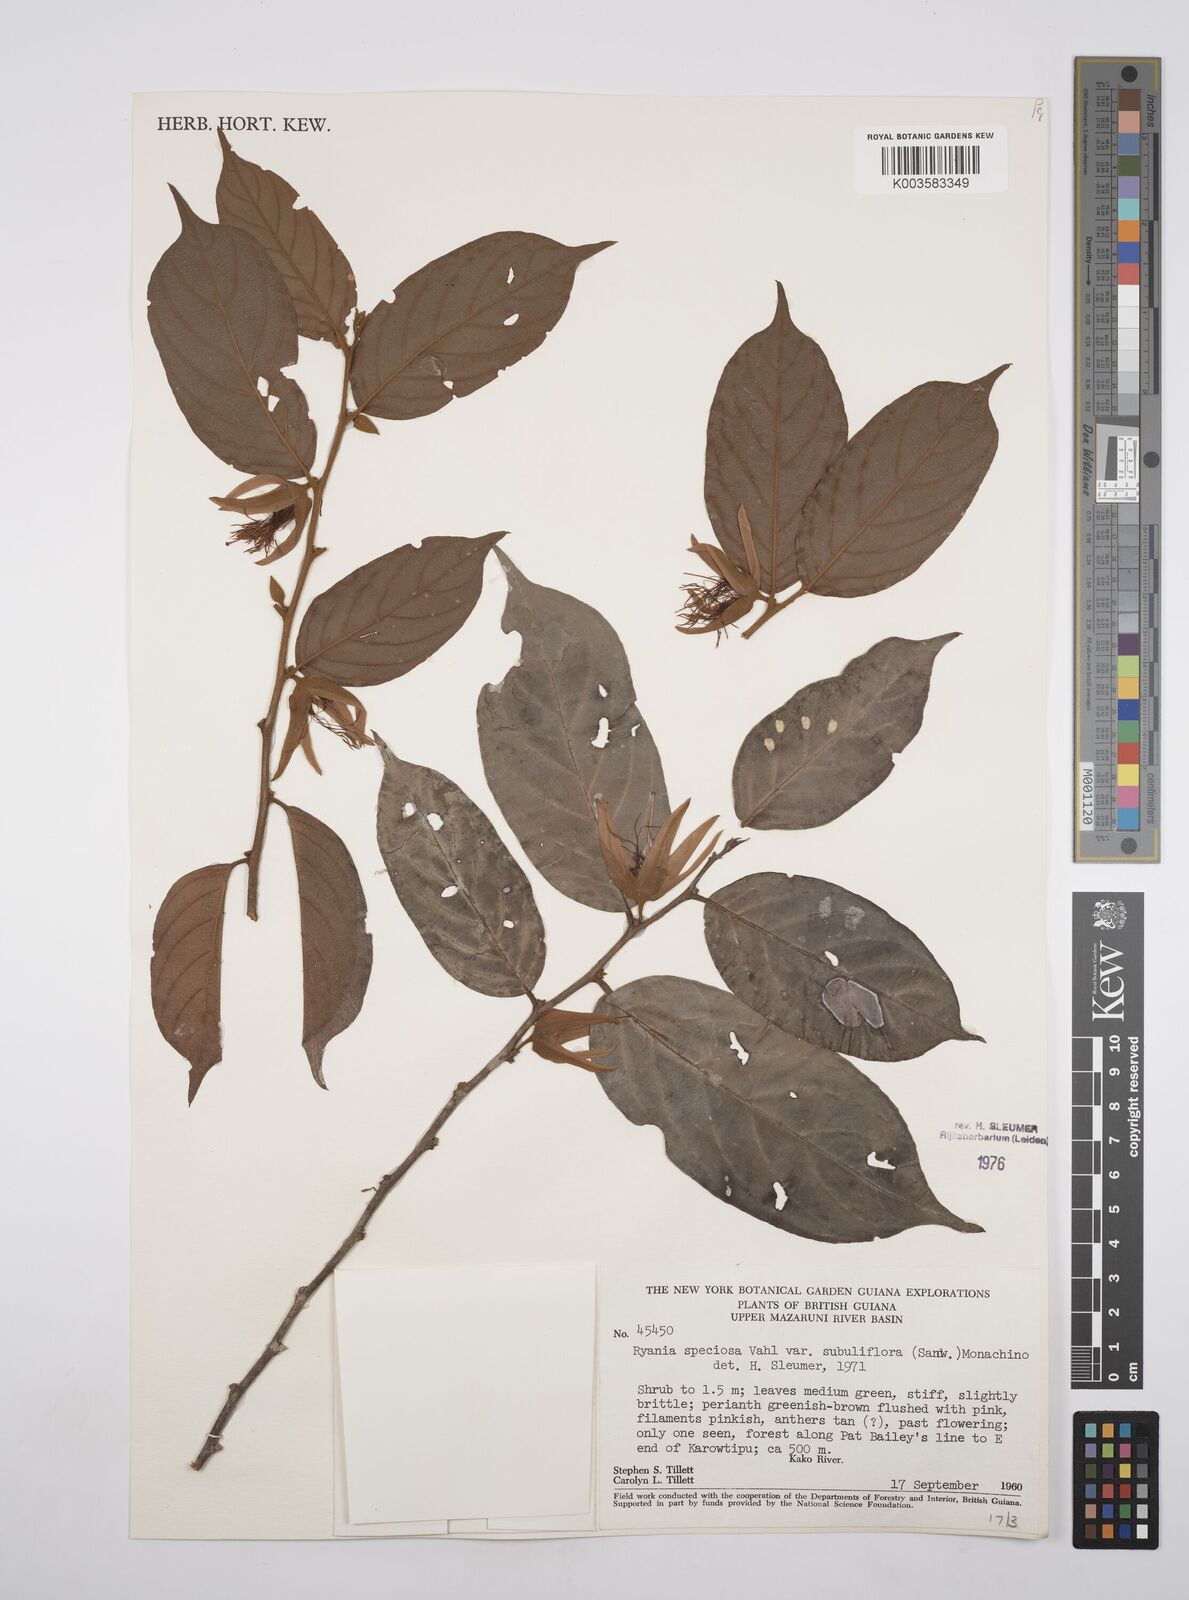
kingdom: Plantae
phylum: Tracheophyta
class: Magnoliopsida
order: Malpighiales
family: Salicaceae
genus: Ryania
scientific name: Ryania speciosa
